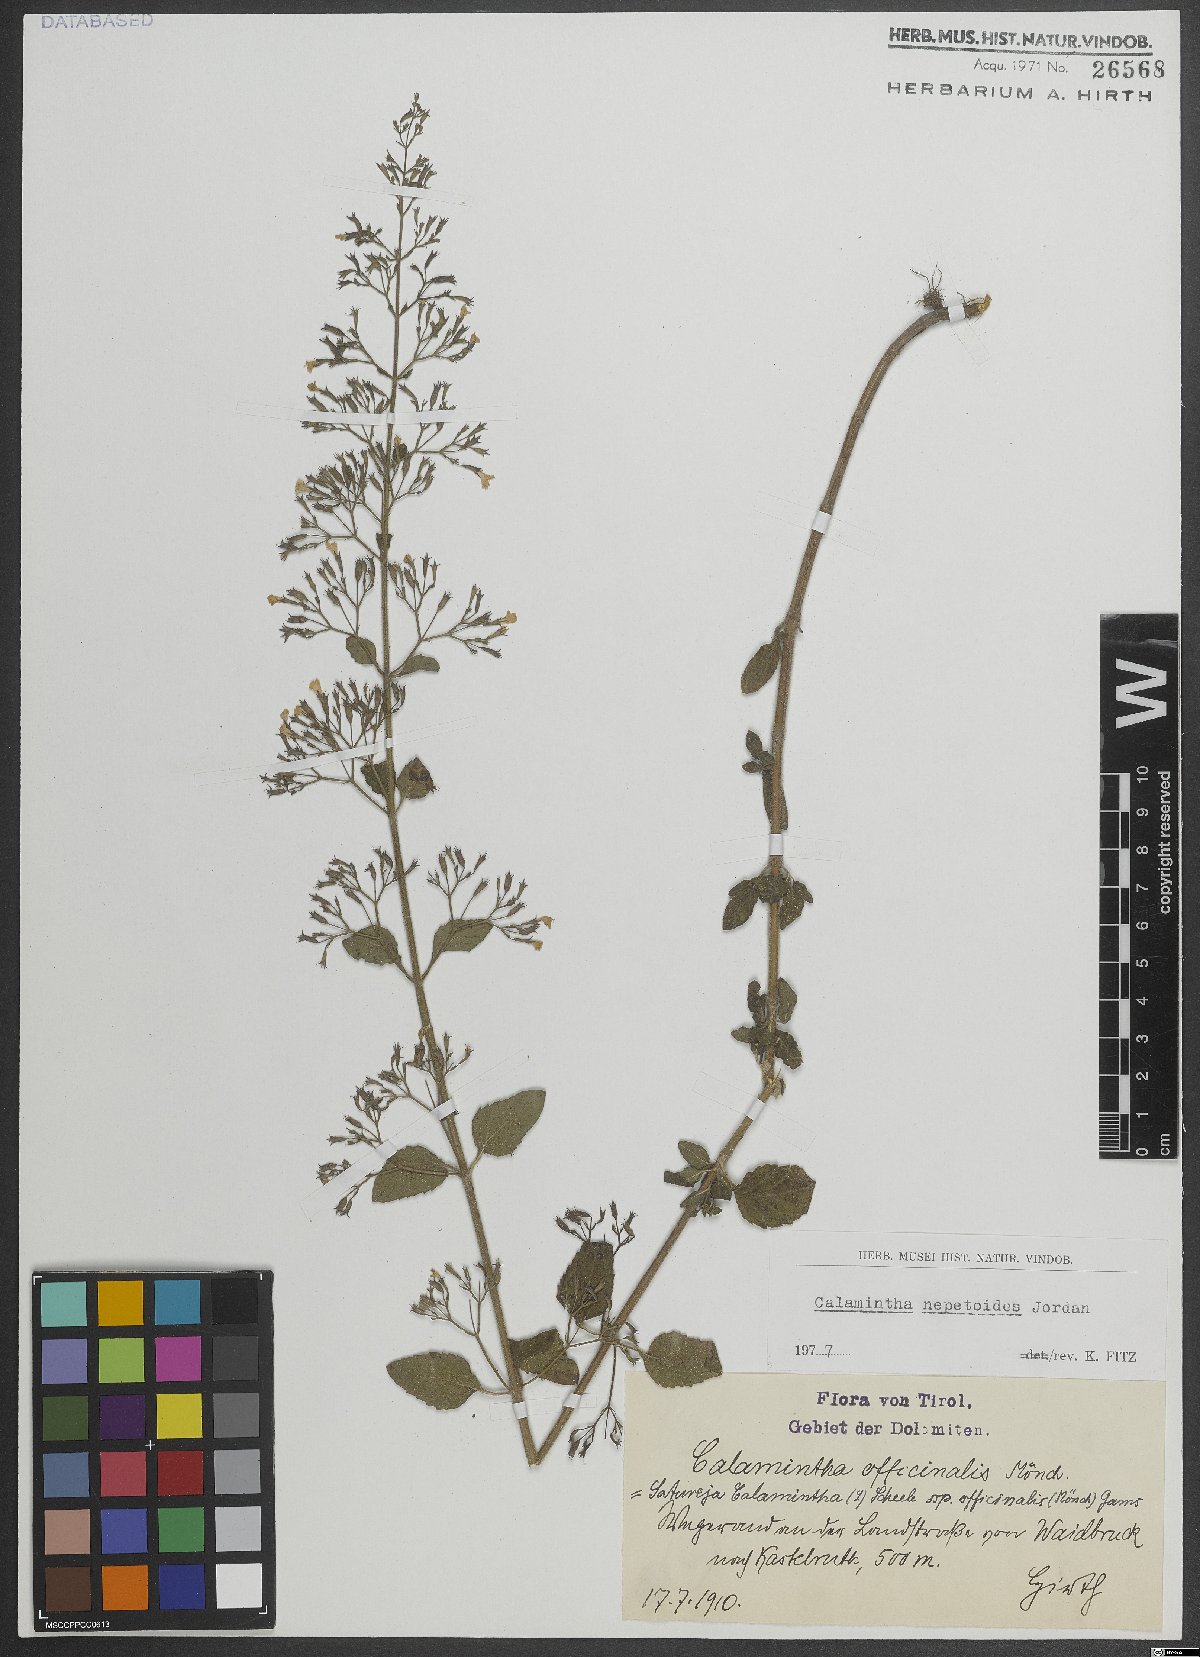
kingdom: Plantae
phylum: Tracheophyta
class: Magnoliopsida
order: Lamiales
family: Lamiaceae
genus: Clinopodium
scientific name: Clinopodium nepeta
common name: Lesser calamint
